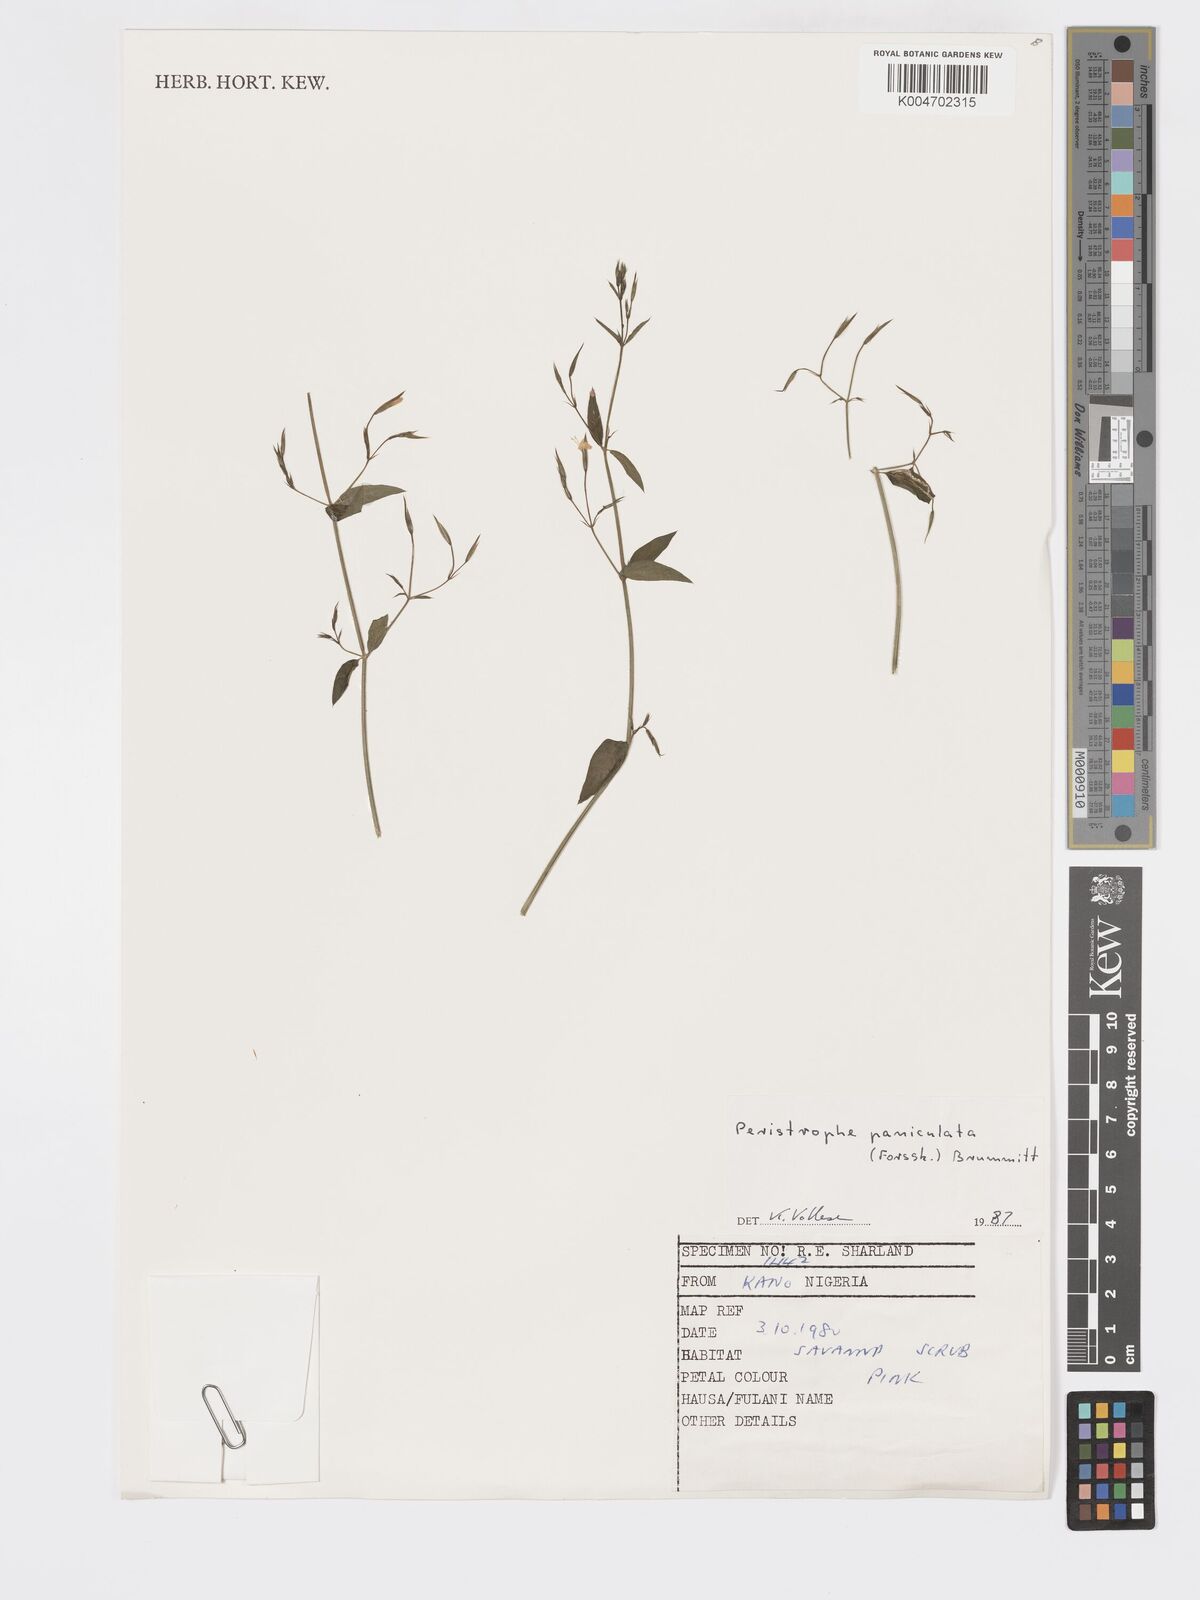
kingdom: Plantae
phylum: Tracheophyta
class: Magnoliopsida
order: Lamiales
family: Acanthaceae
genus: Dicliptera
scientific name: Dicliptera paniculata
